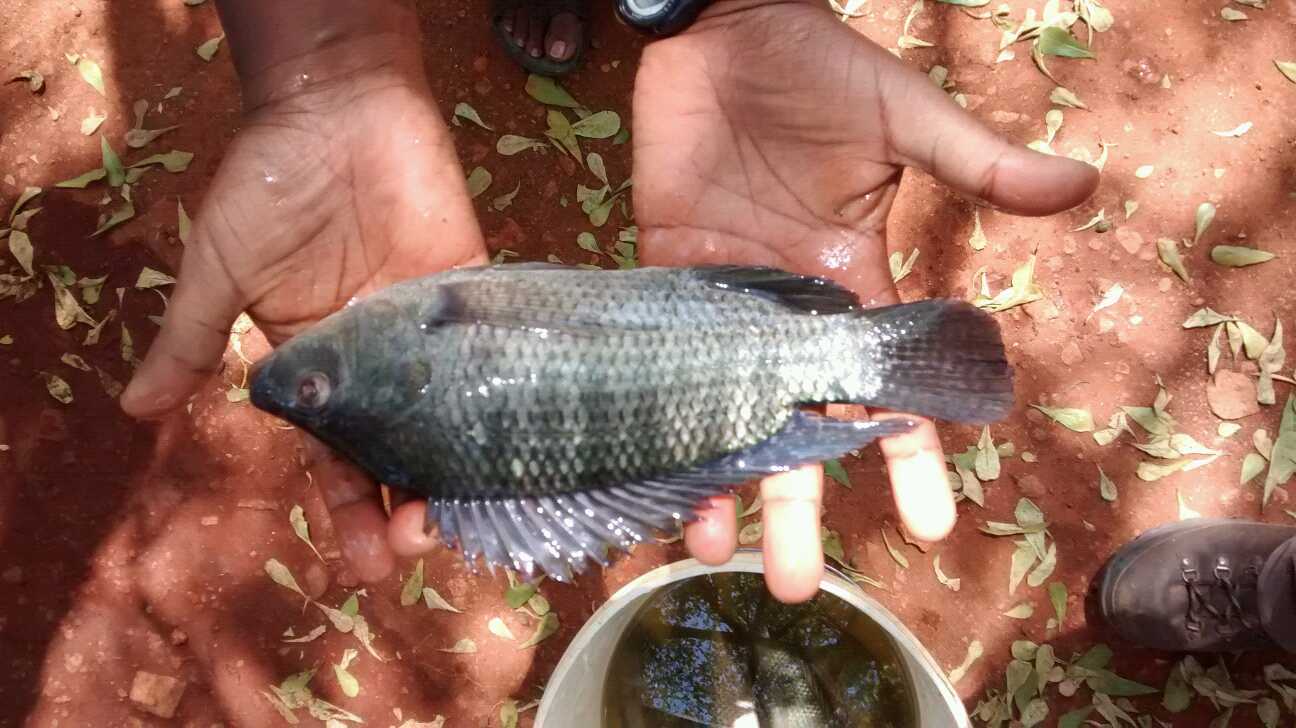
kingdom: Animalia
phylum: Chordata
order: Perciformes
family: Cichlidae
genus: Oreochromis
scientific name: Oreochromis niloticus
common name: Nile tilapia
